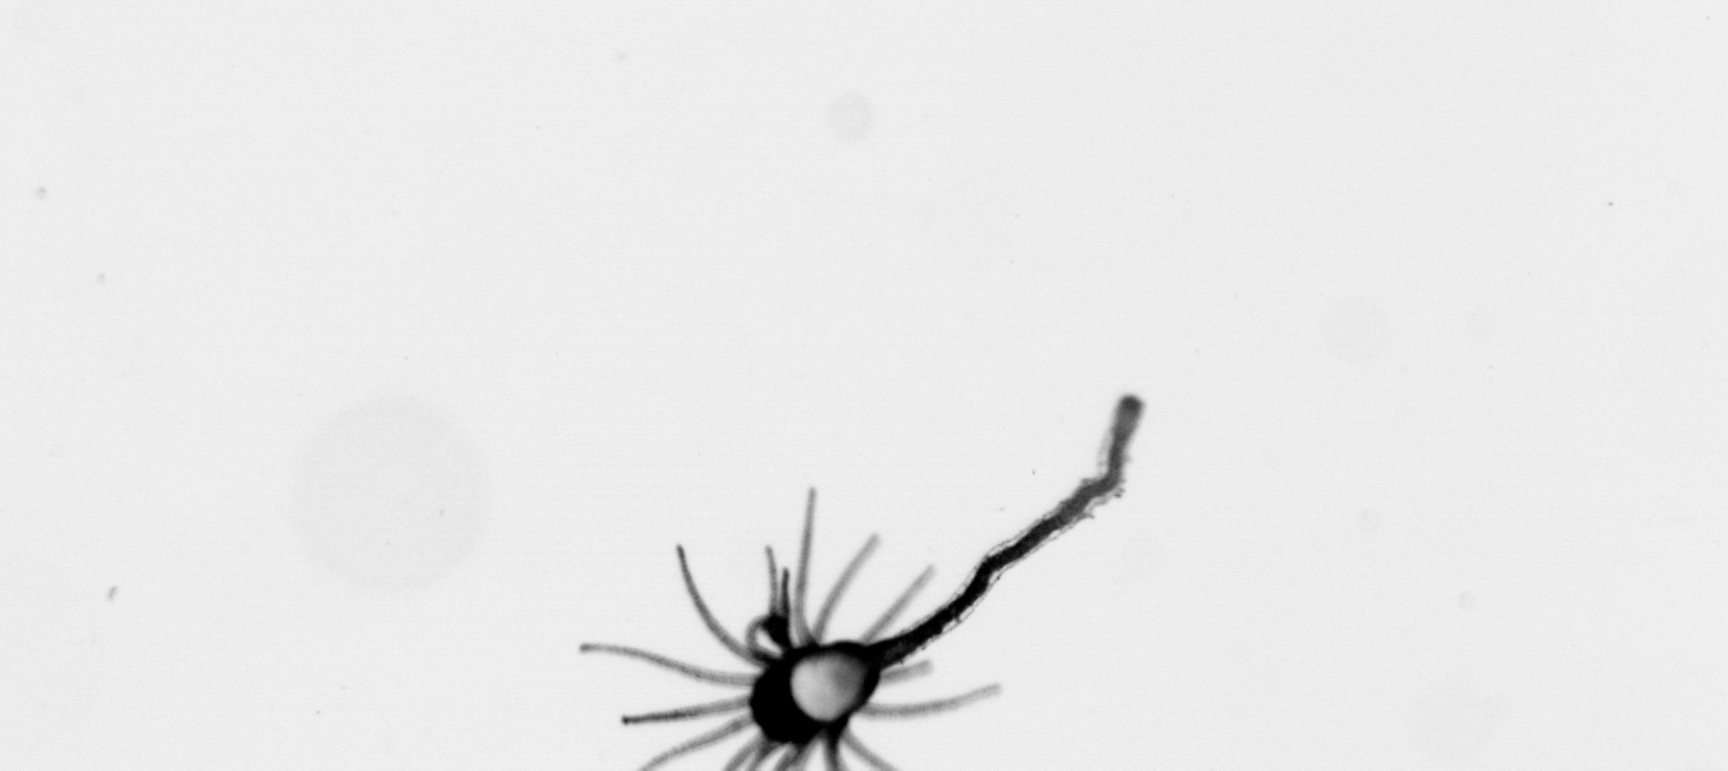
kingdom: Animalia
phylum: Cnidaria
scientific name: Cnidaria
